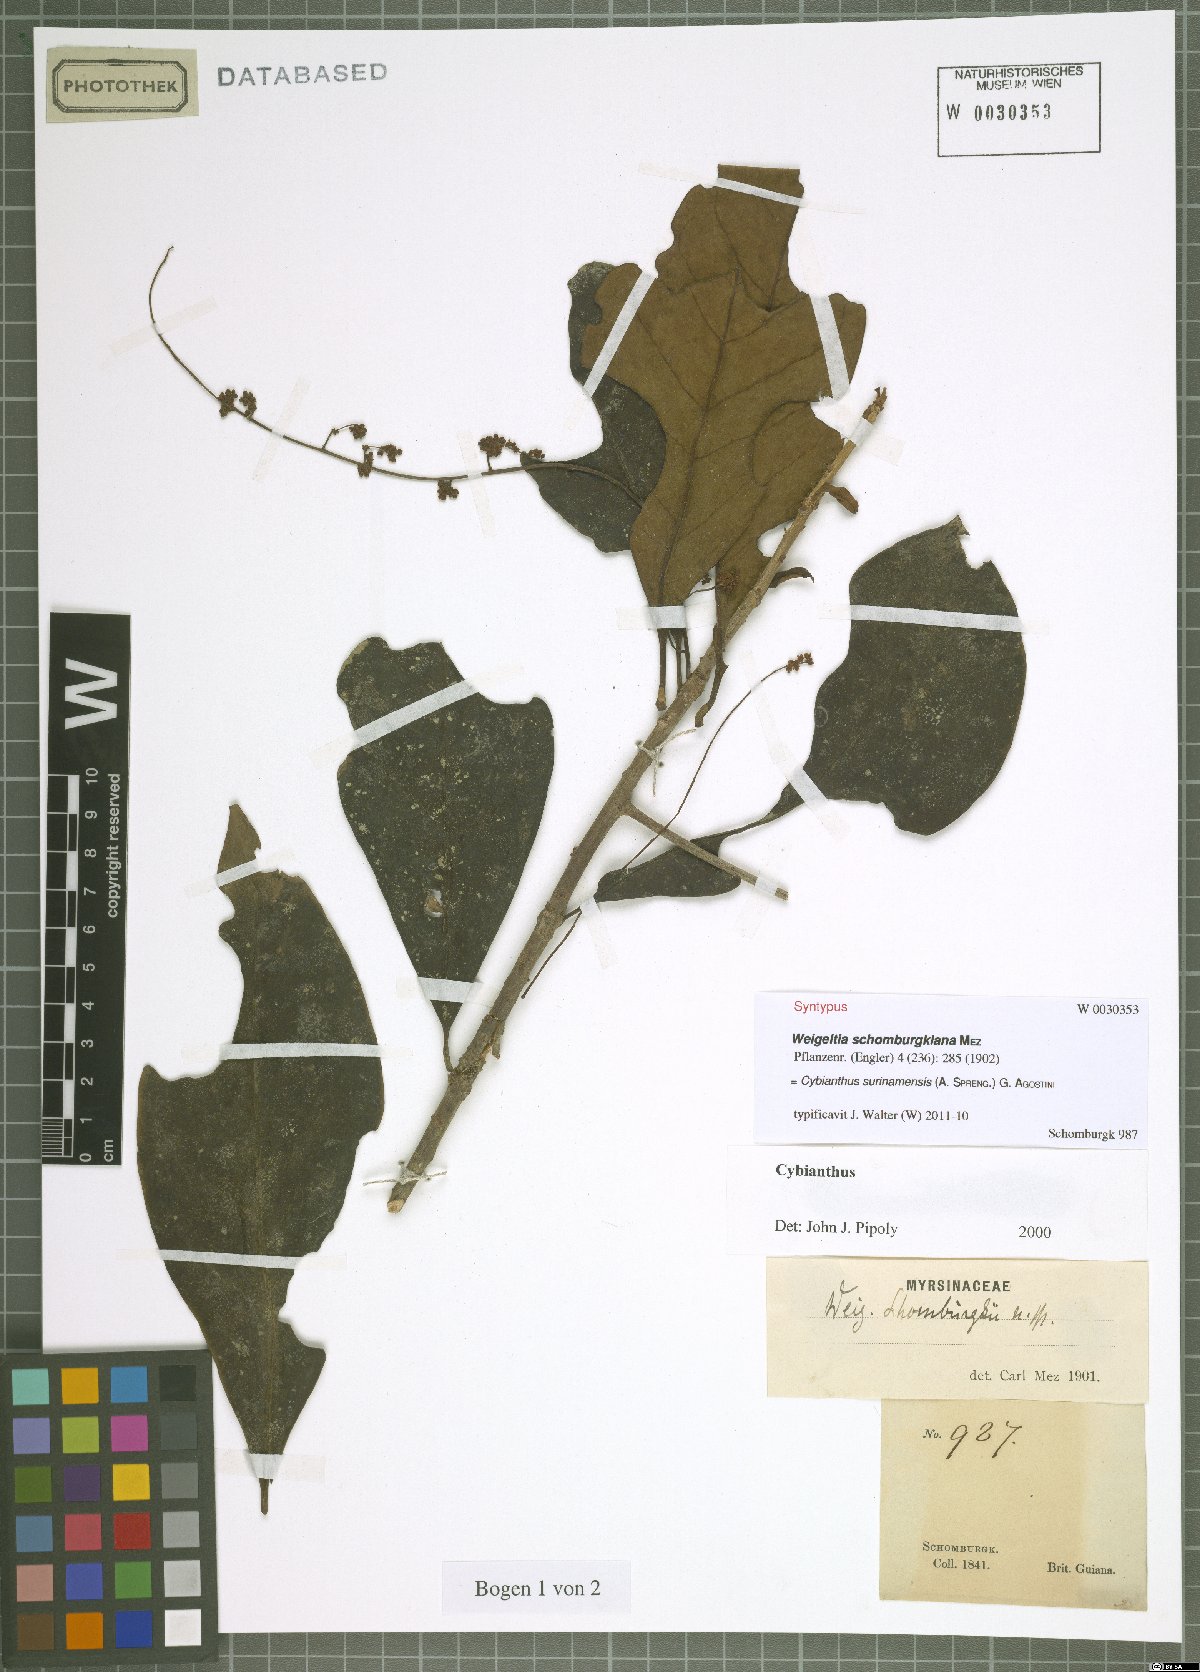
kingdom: Plantae
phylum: Tracheophyta
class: Magnoliopsida
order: Ericales
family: Primulaceae
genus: Cybianthus
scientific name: Cybianthus surinamensis
